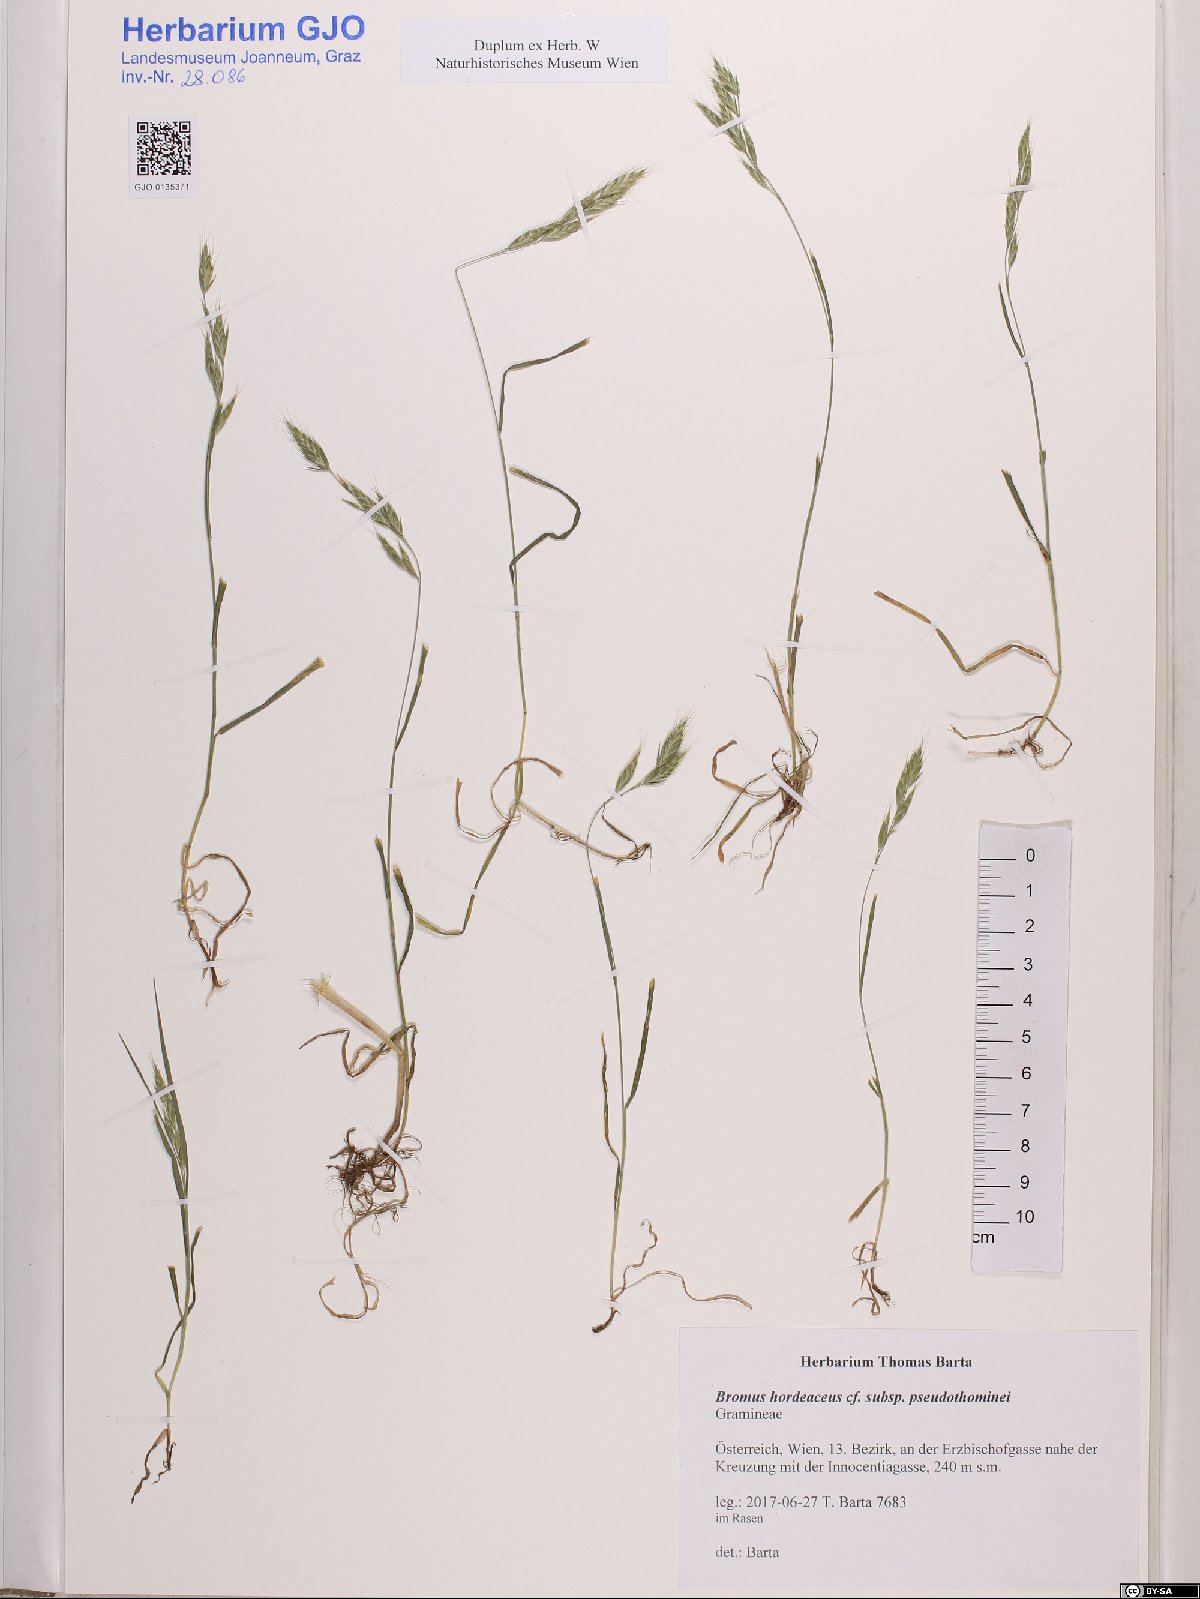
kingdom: Plantae
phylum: Tracheophyta
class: Liliopsida
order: Poales
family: Poaceae
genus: Bromus
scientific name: Bromus ferronii
